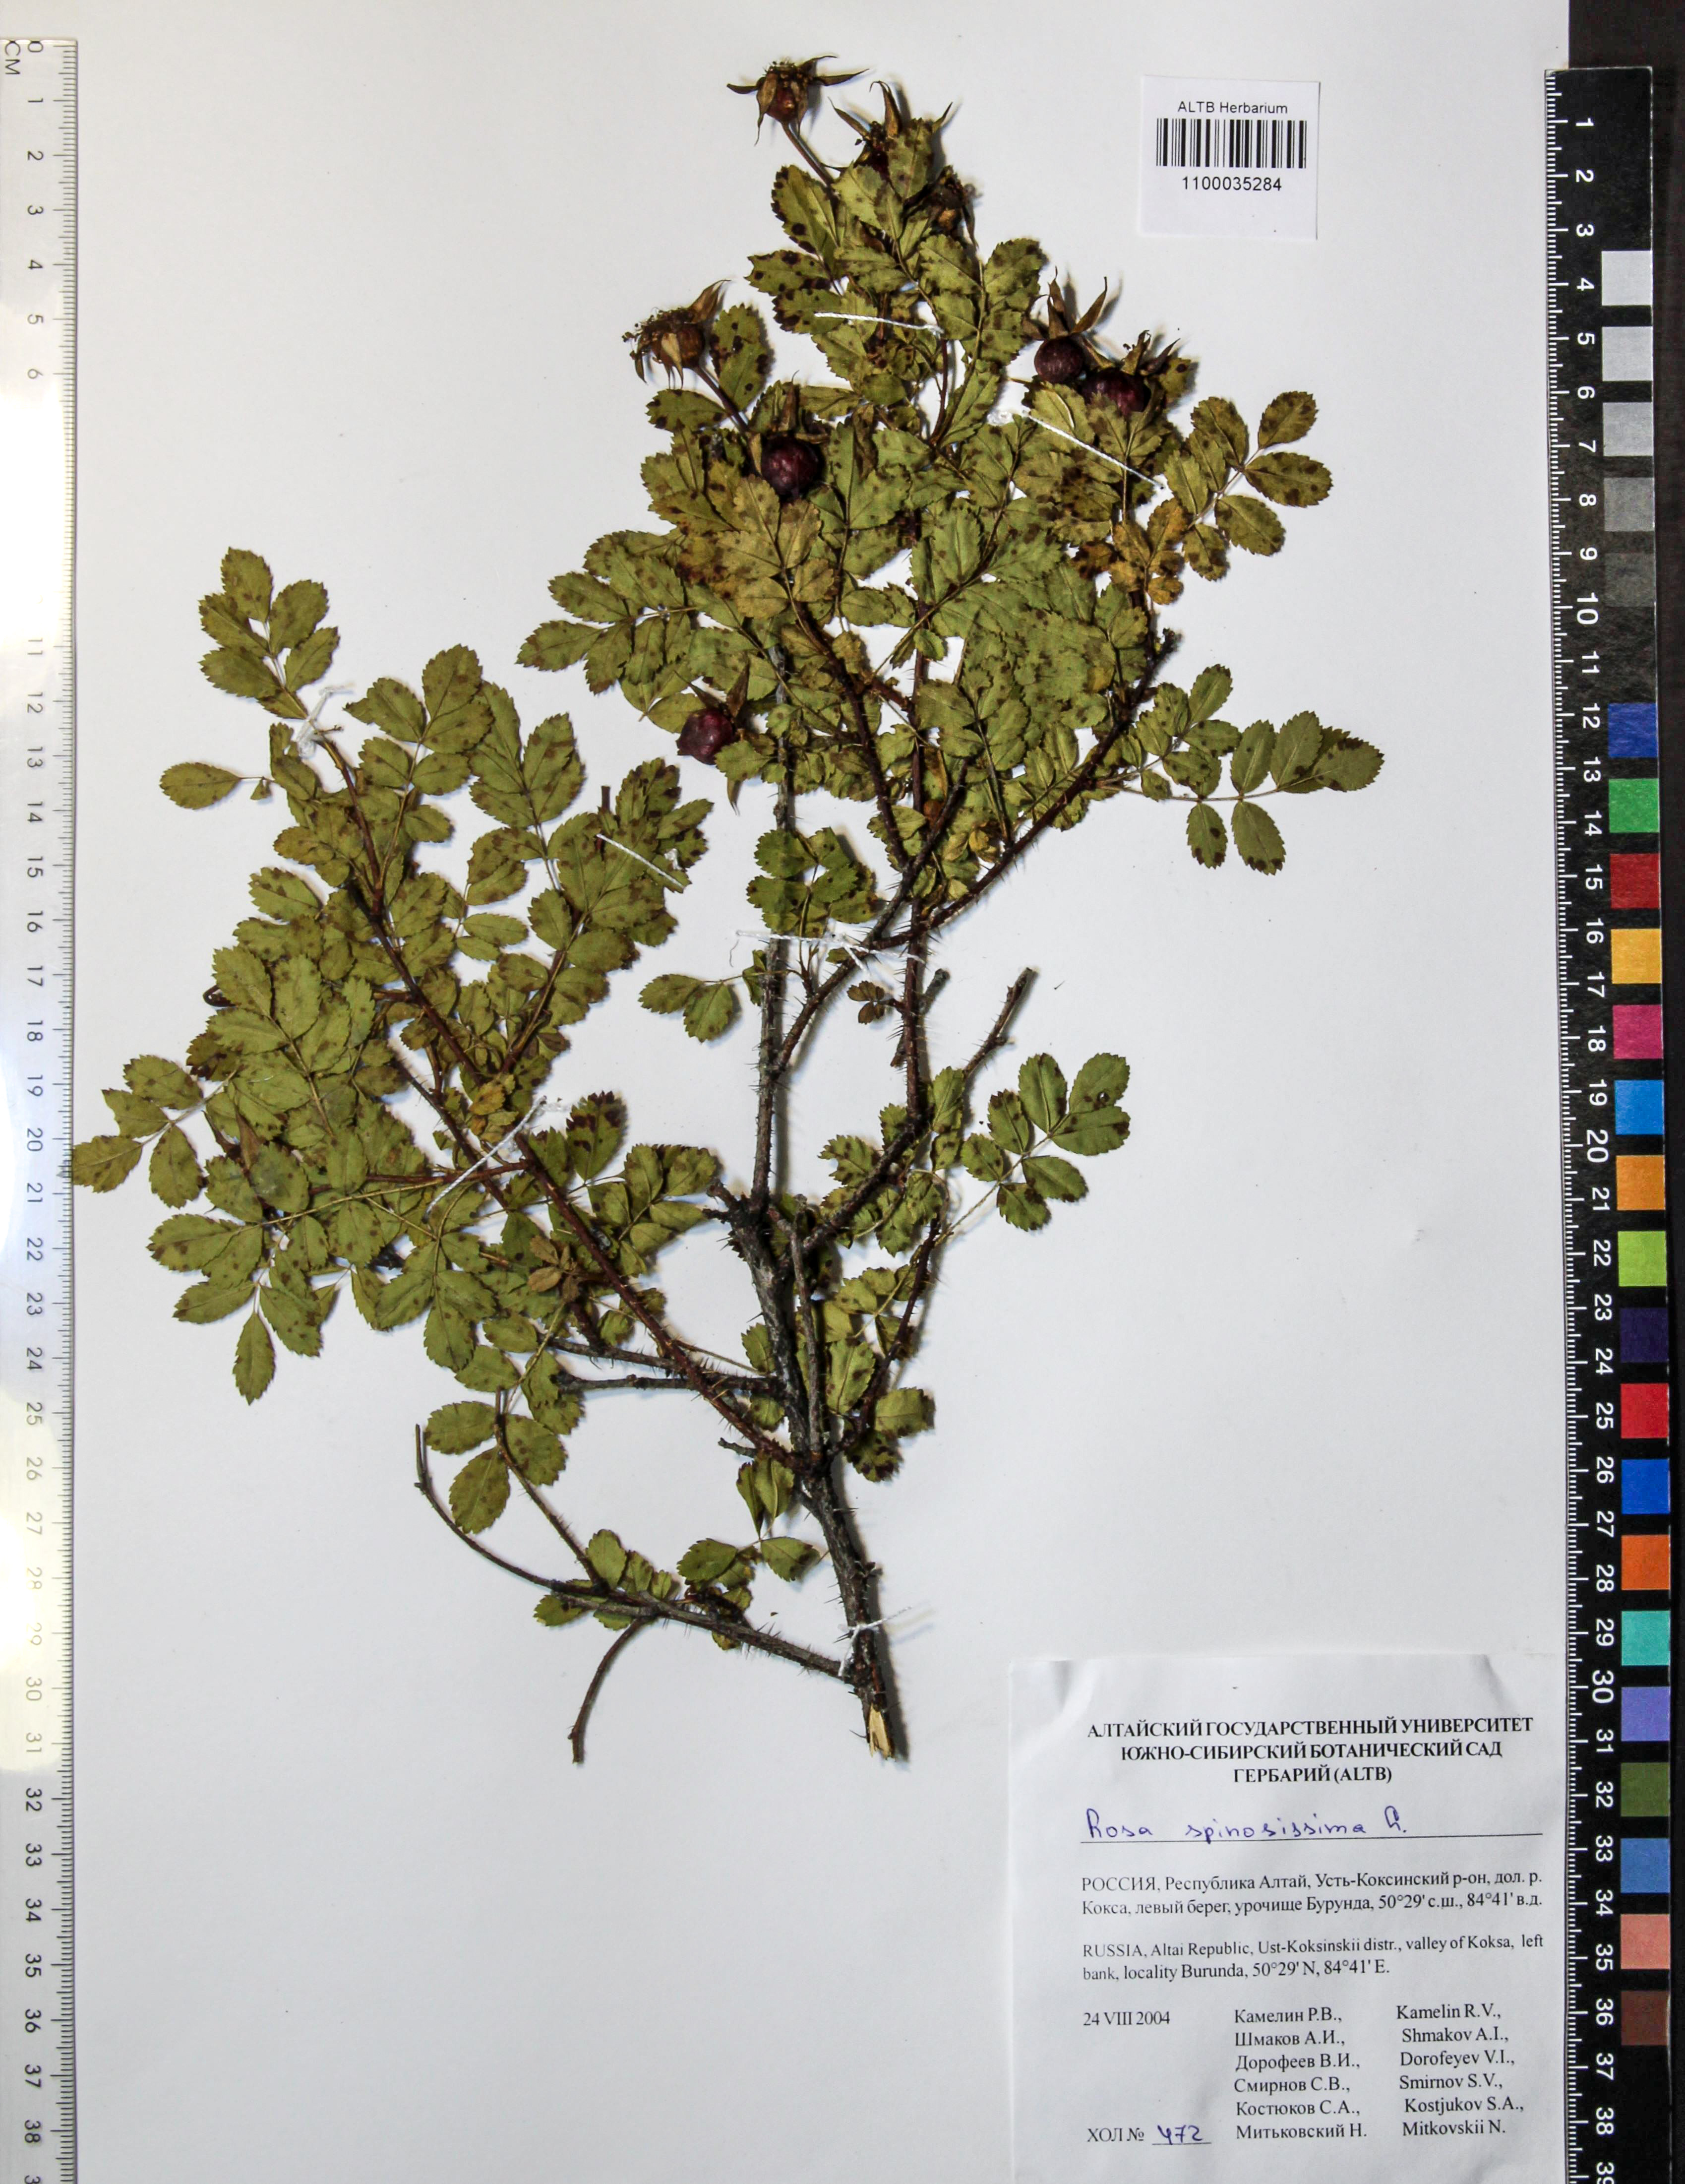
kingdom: Plantae
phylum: Tracheophyta
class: Magnoliopsida
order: Rosales
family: Rosaceae
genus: Rosa
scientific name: Rosa spinosissima
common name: Burnet rose
